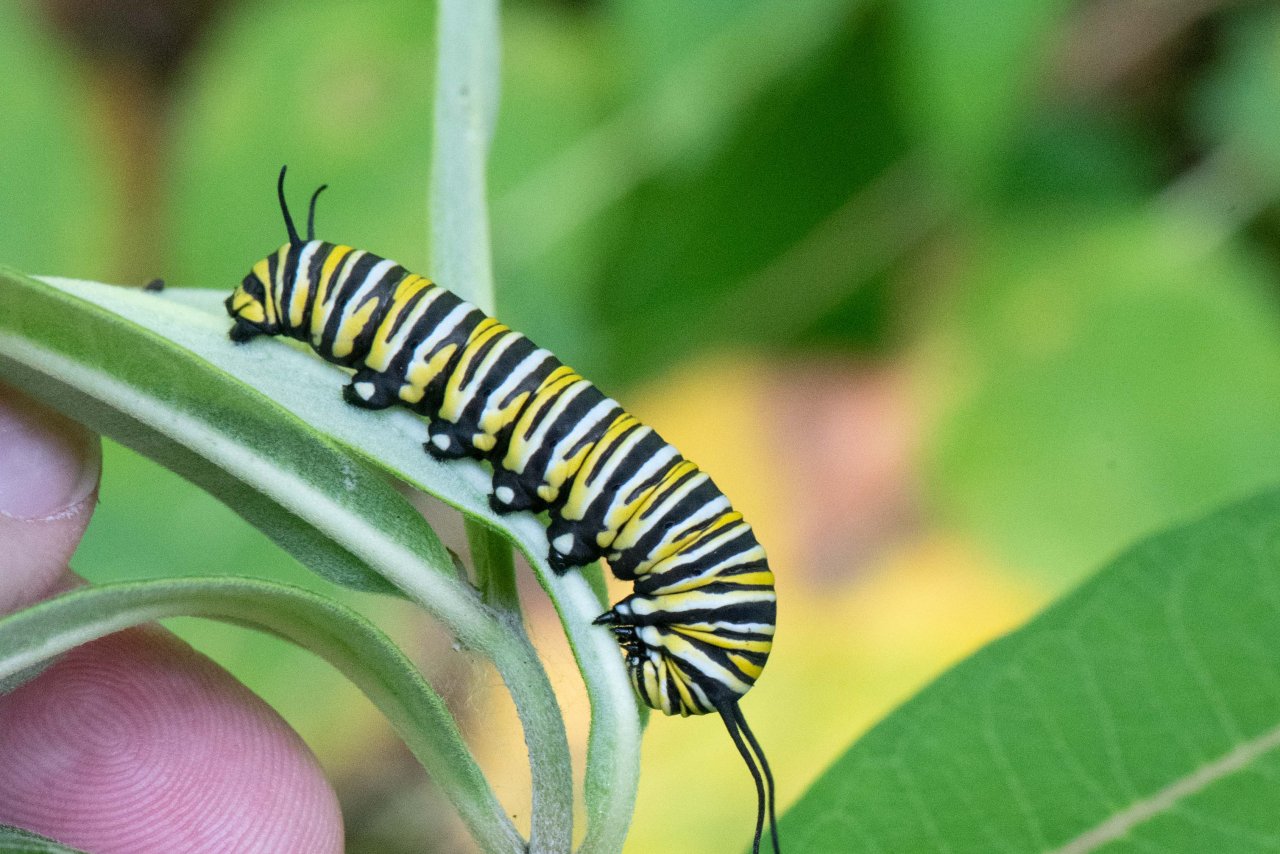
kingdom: Animalia
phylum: Arthropoda
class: Insecta
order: Lepidoptera
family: Nymphalidae
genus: Danaus
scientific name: Danaus plexippus
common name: Monarch
